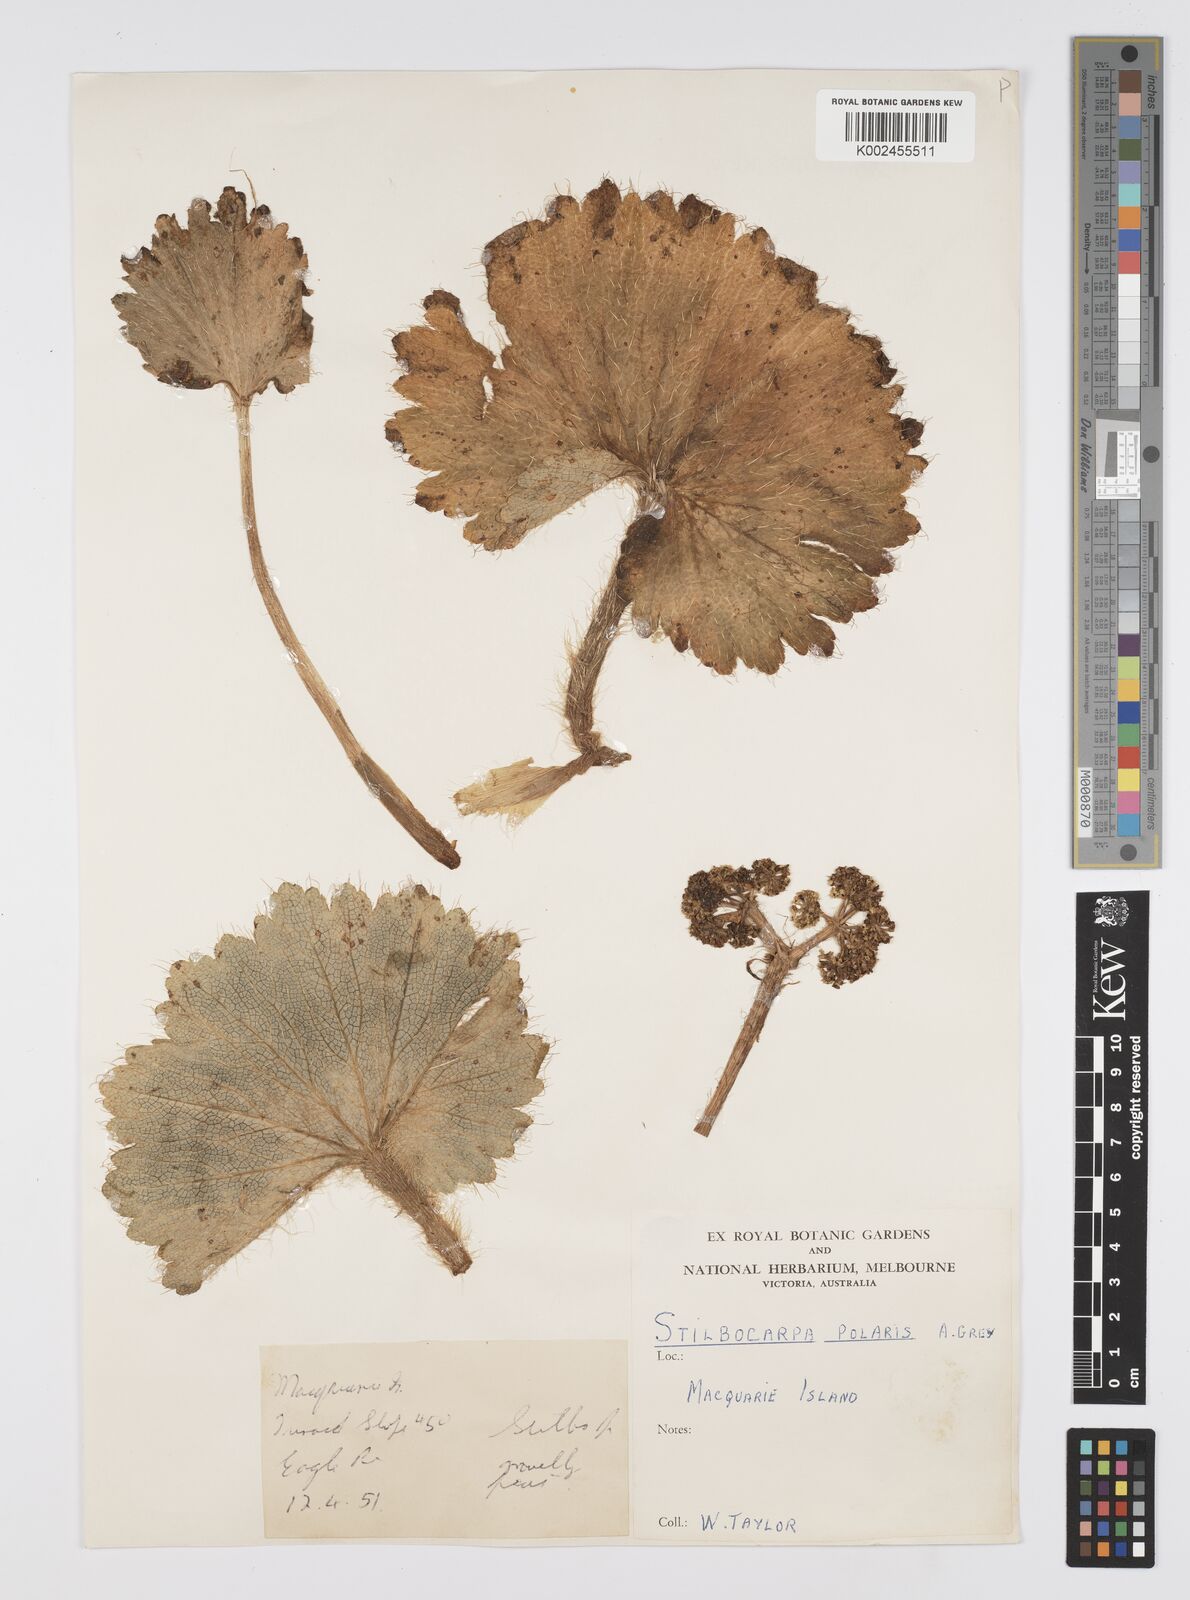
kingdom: Plantae
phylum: Tracheophyta
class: Magnoliopsida
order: Apiales
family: Araliaceae
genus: Stilbocarpa
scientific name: Stilbocarpa
